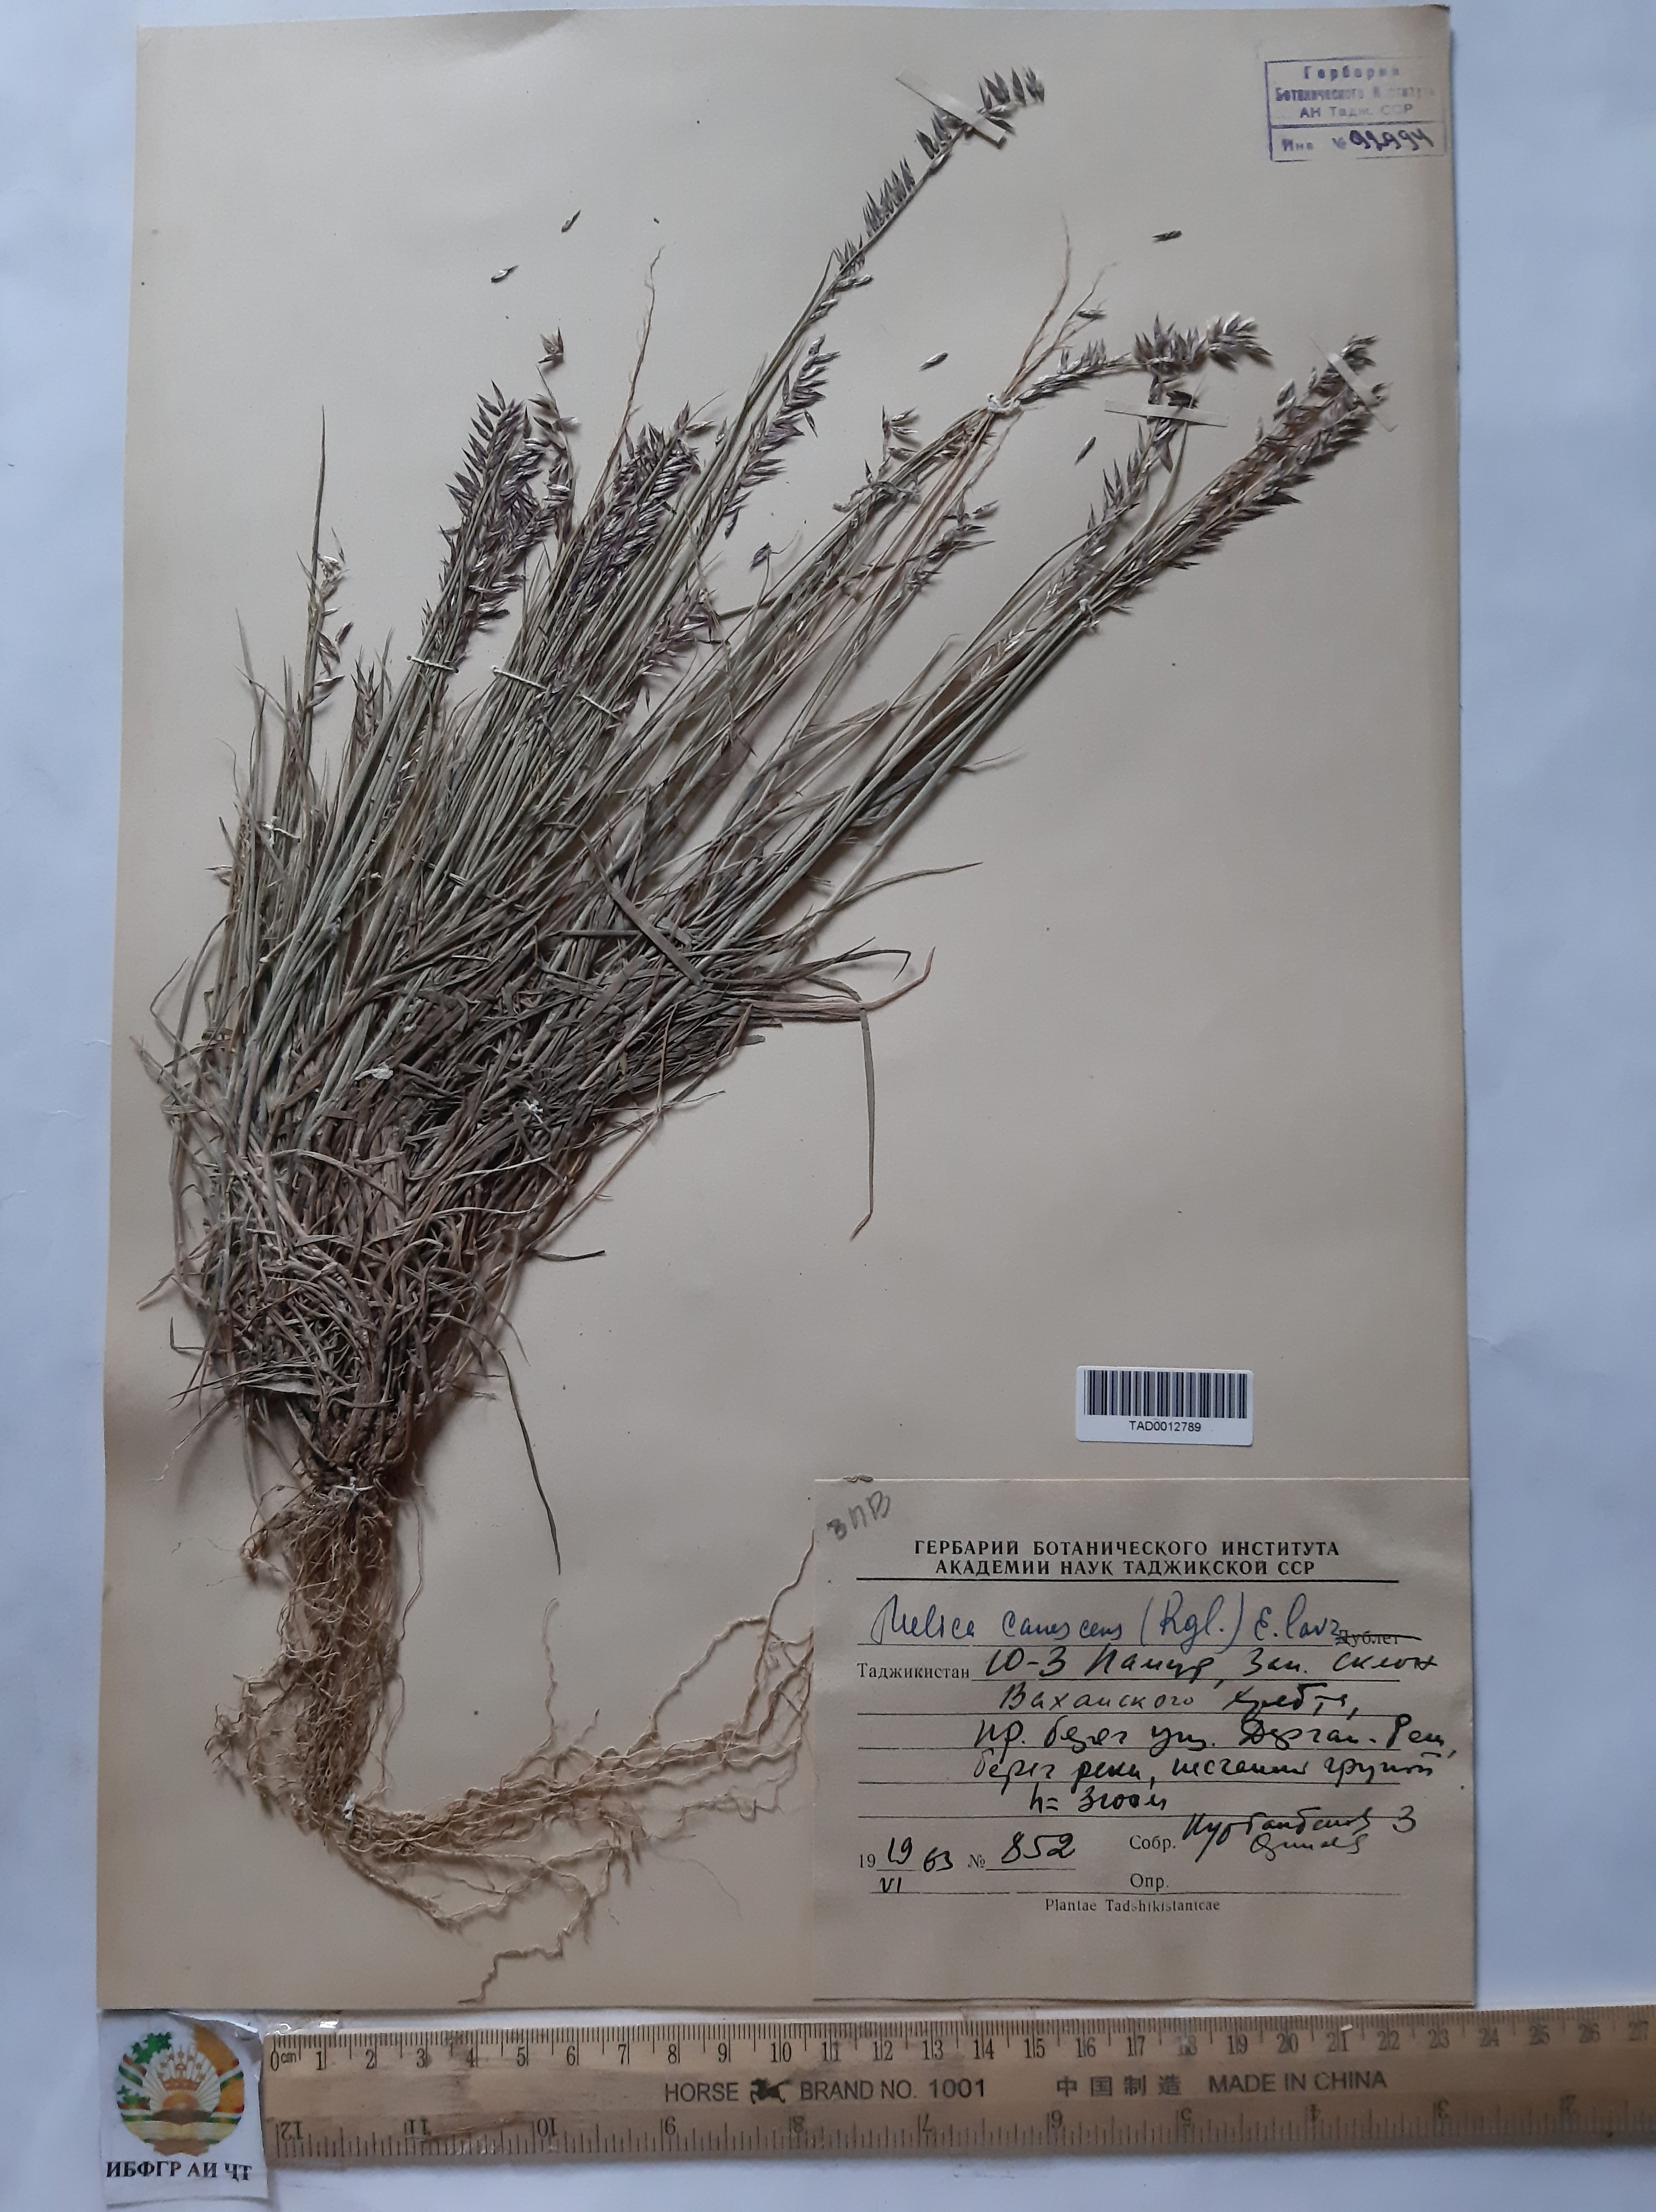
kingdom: Plantae
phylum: Tracheophyta
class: Liliopsida
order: Poales
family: Poaceae
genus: Melica
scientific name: Melica persica
